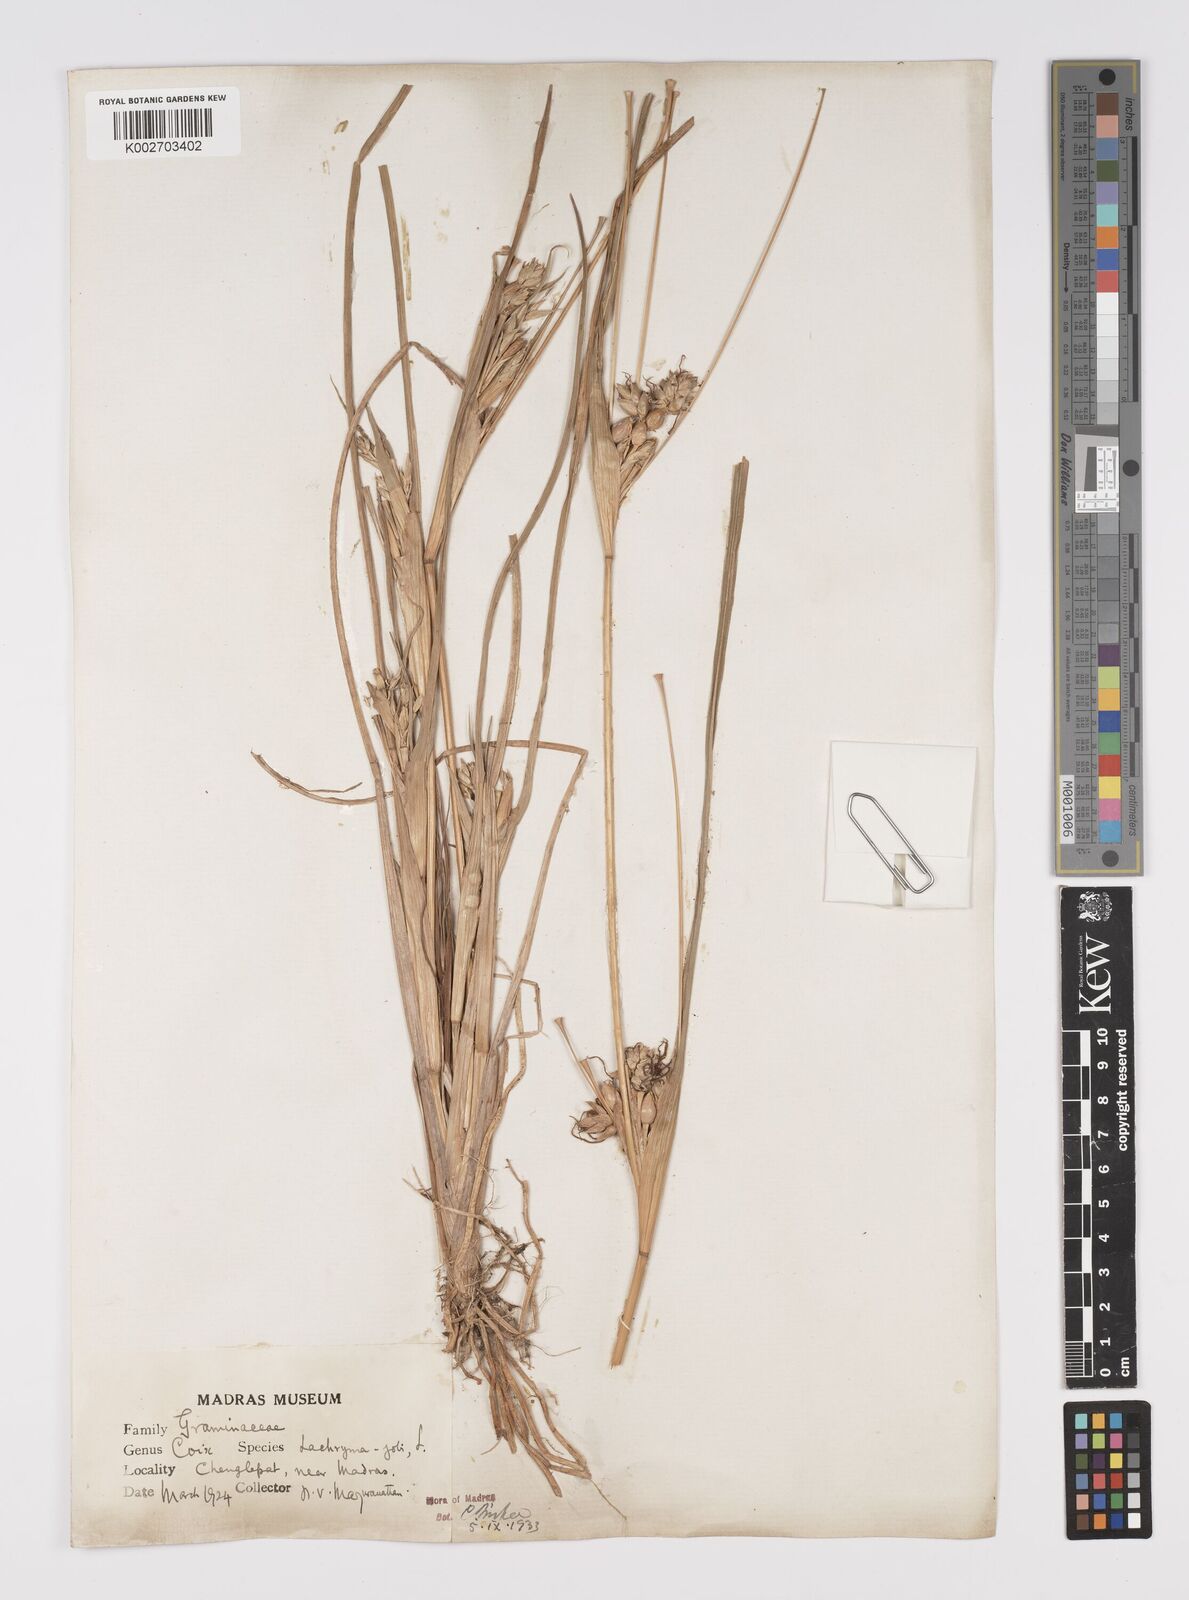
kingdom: Plantae
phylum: Tracheophyta
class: Liliopsida
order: Poales
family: Poaceae
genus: Coix
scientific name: Coix lacryma-jobi
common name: Job's tears
